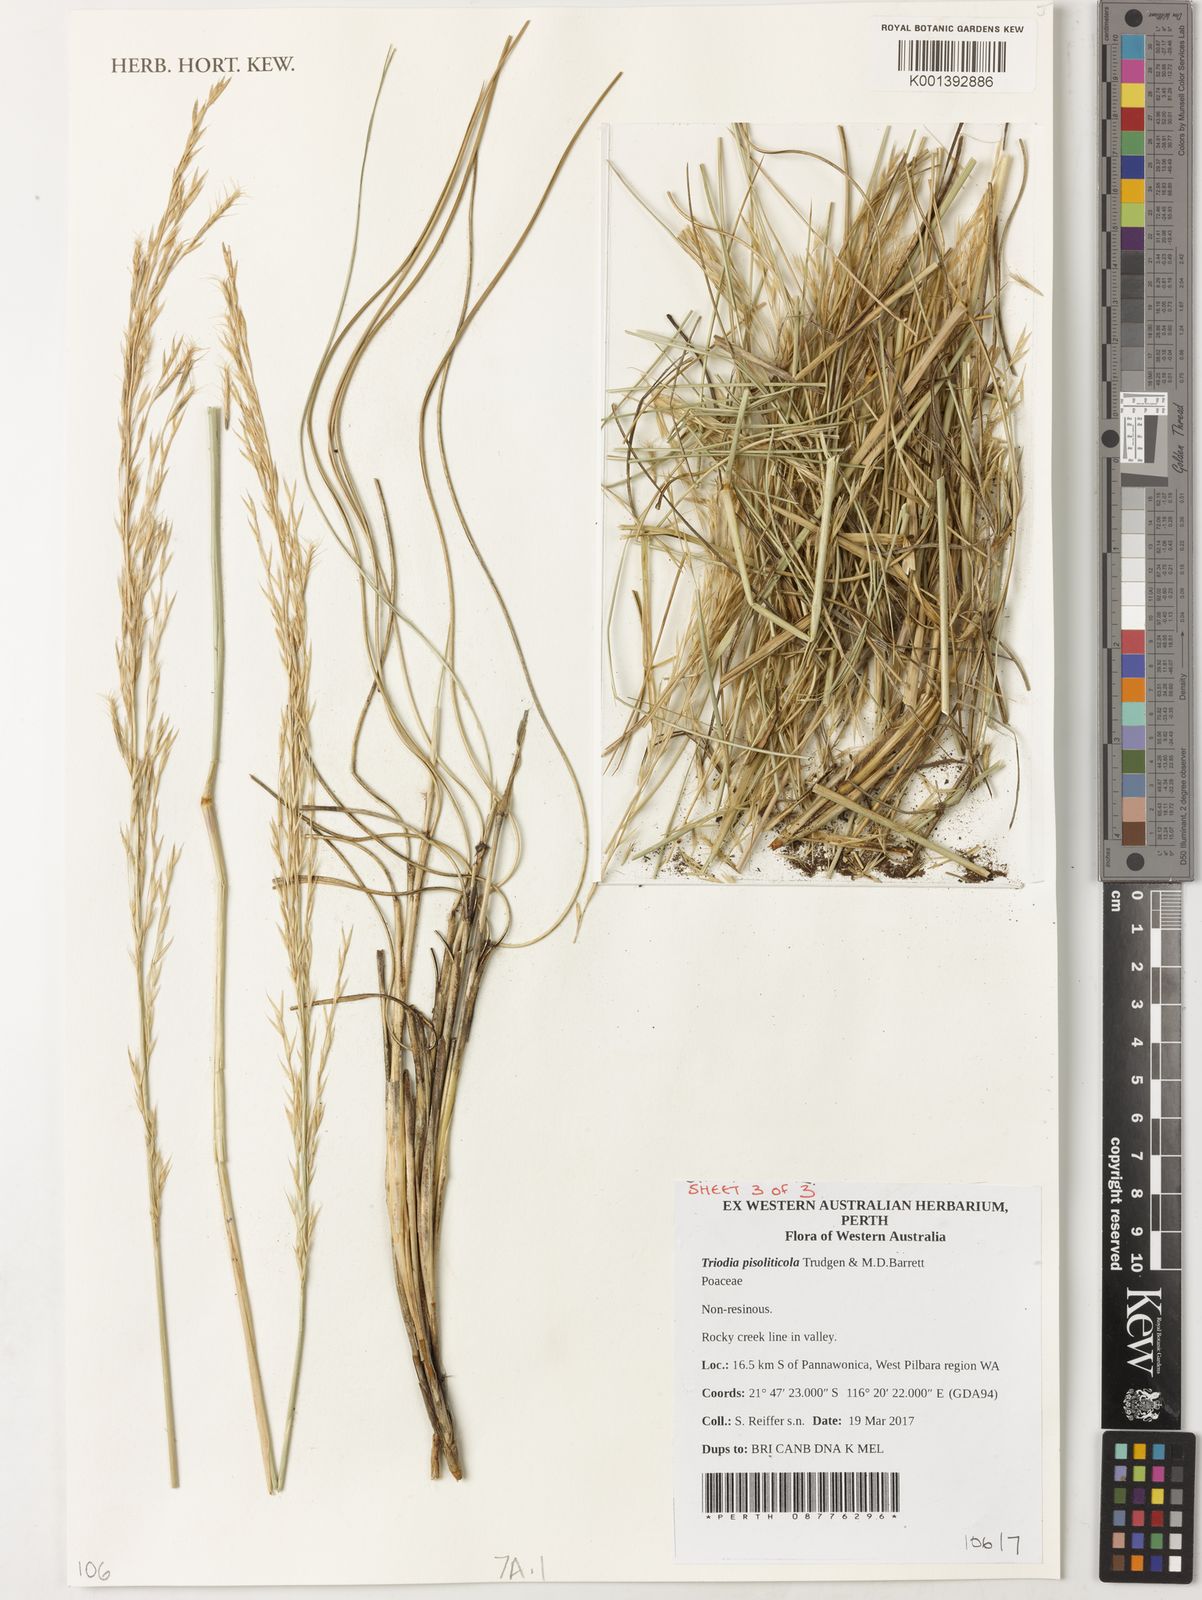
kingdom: Plantae
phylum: Tracheophyta
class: Liliopsida
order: Poales
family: Poaceae
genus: Triodia
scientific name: Triodia pisoliticola
